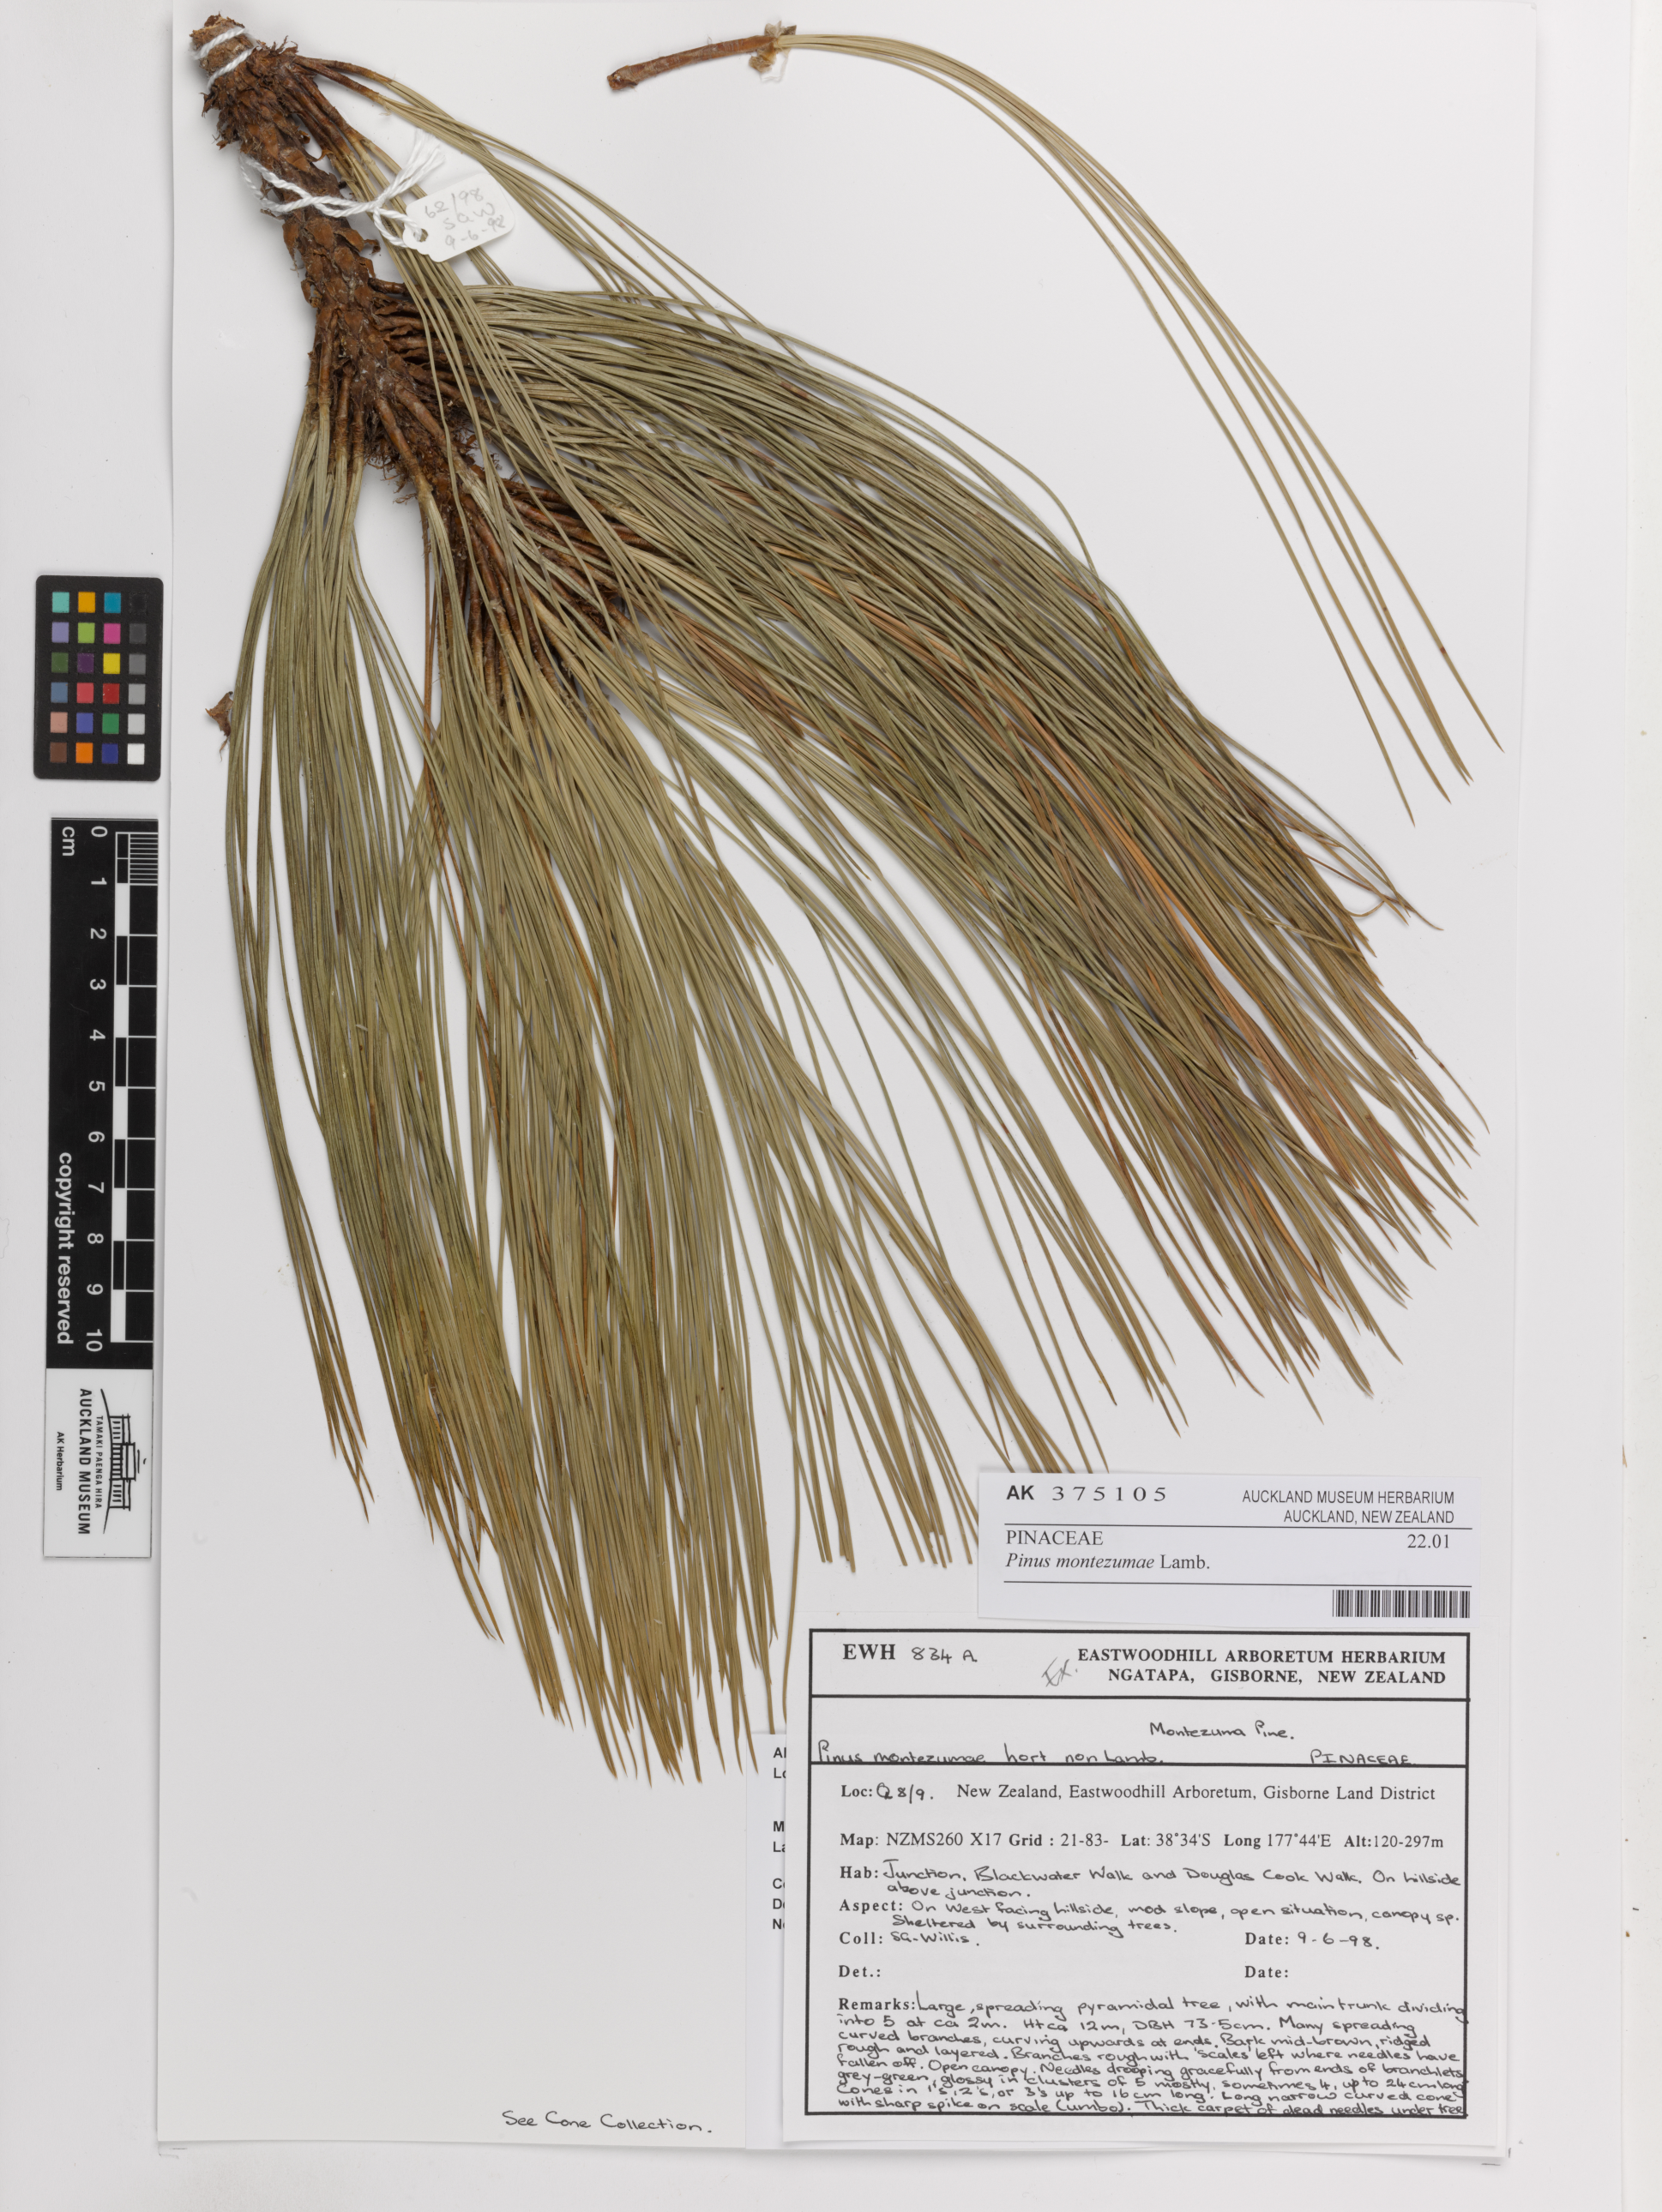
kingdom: Plantae
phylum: Tracheophyta
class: Pinopsida
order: Pinales
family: Pinaceae
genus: Pinus
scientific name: Pinus montezumae
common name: Montezuma pine
